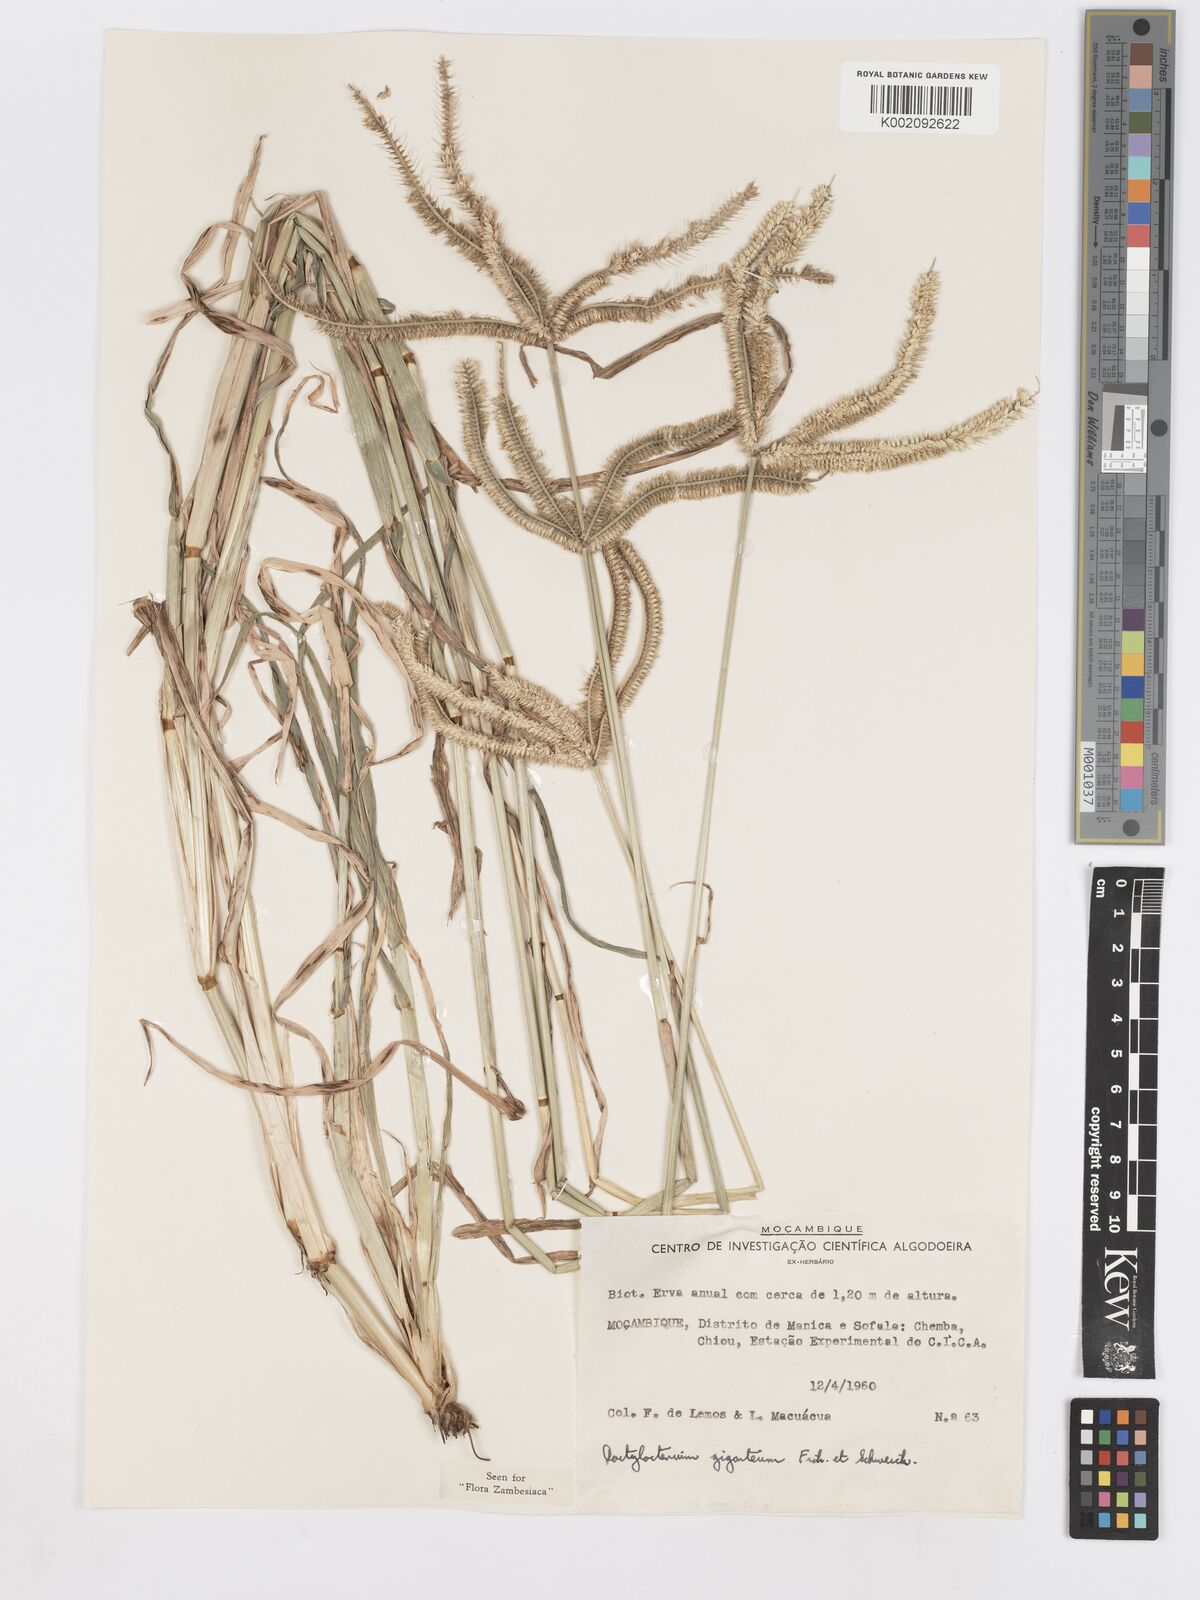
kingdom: Plantae
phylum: Tracheophyta
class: Liliopsida
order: Poales
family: Poaceae
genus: Dactyloctenium
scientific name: Dactyloctenium giganteum
